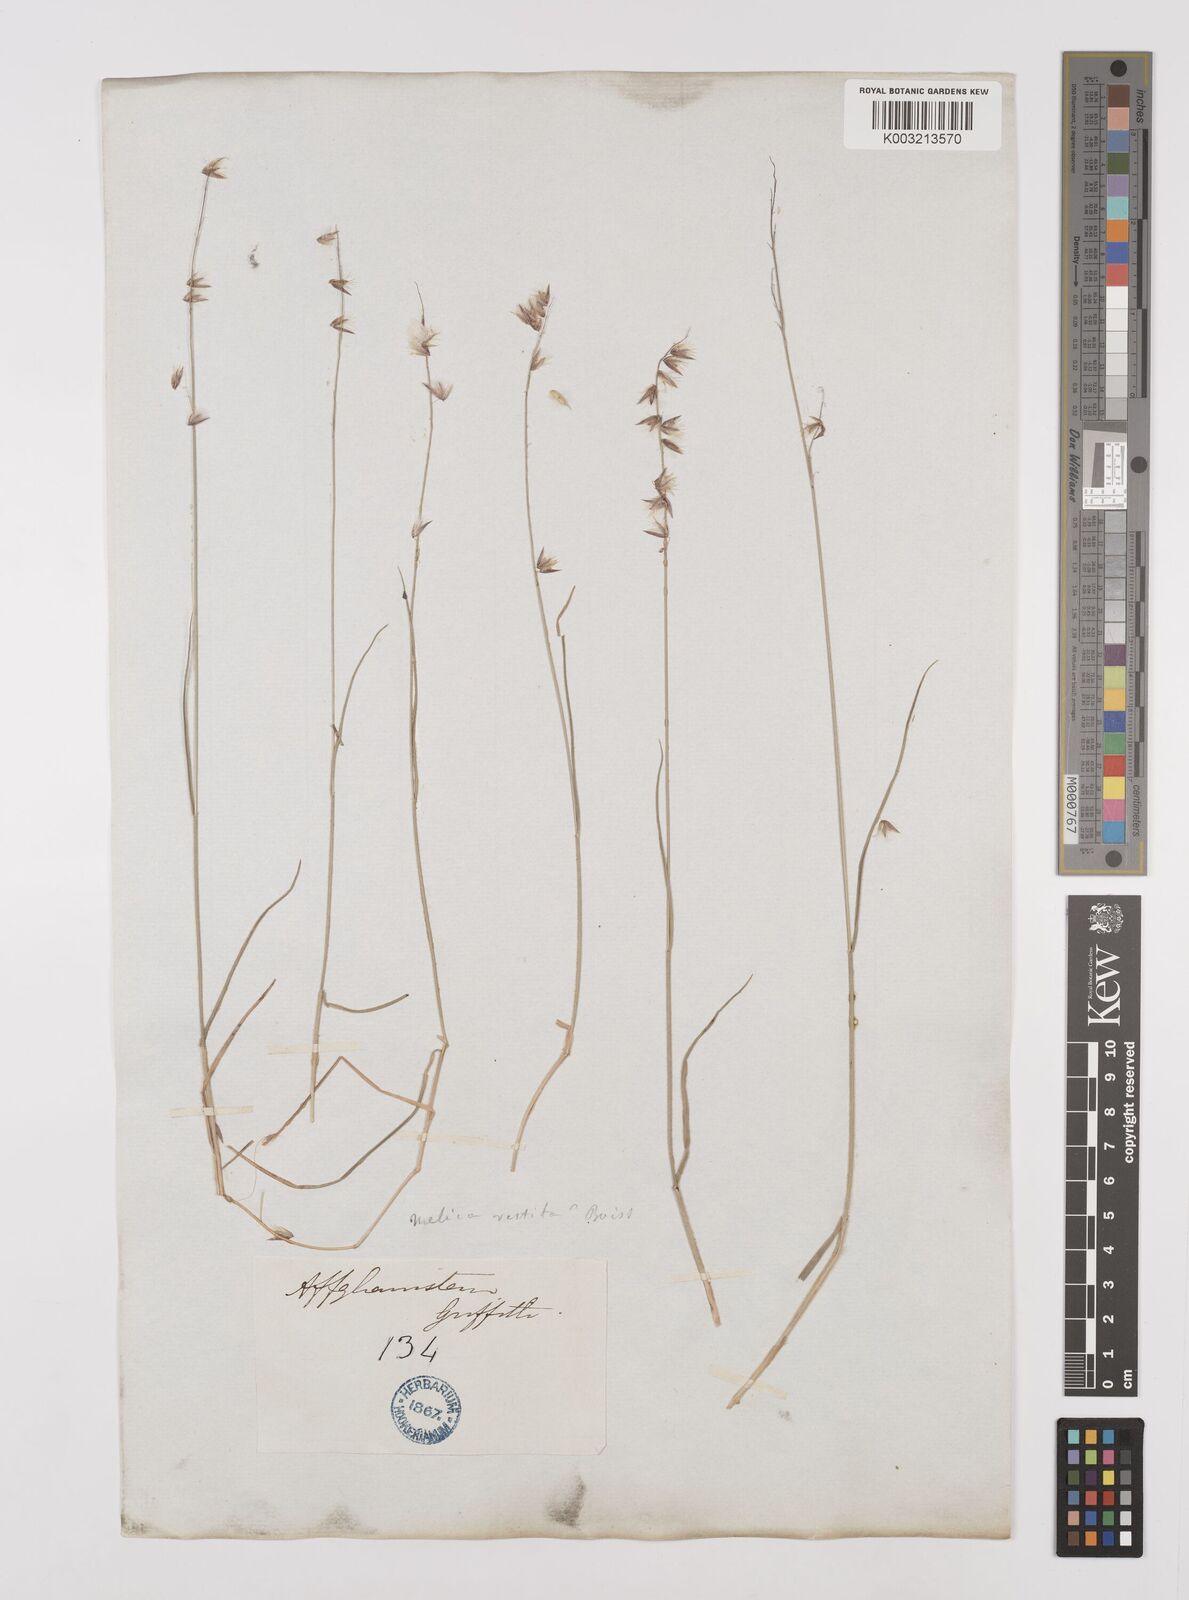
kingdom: Plantae
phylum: Tracheophyta
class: Liliopsida
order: Poales
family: Poaceae
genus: Melica
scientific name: Melica persica
